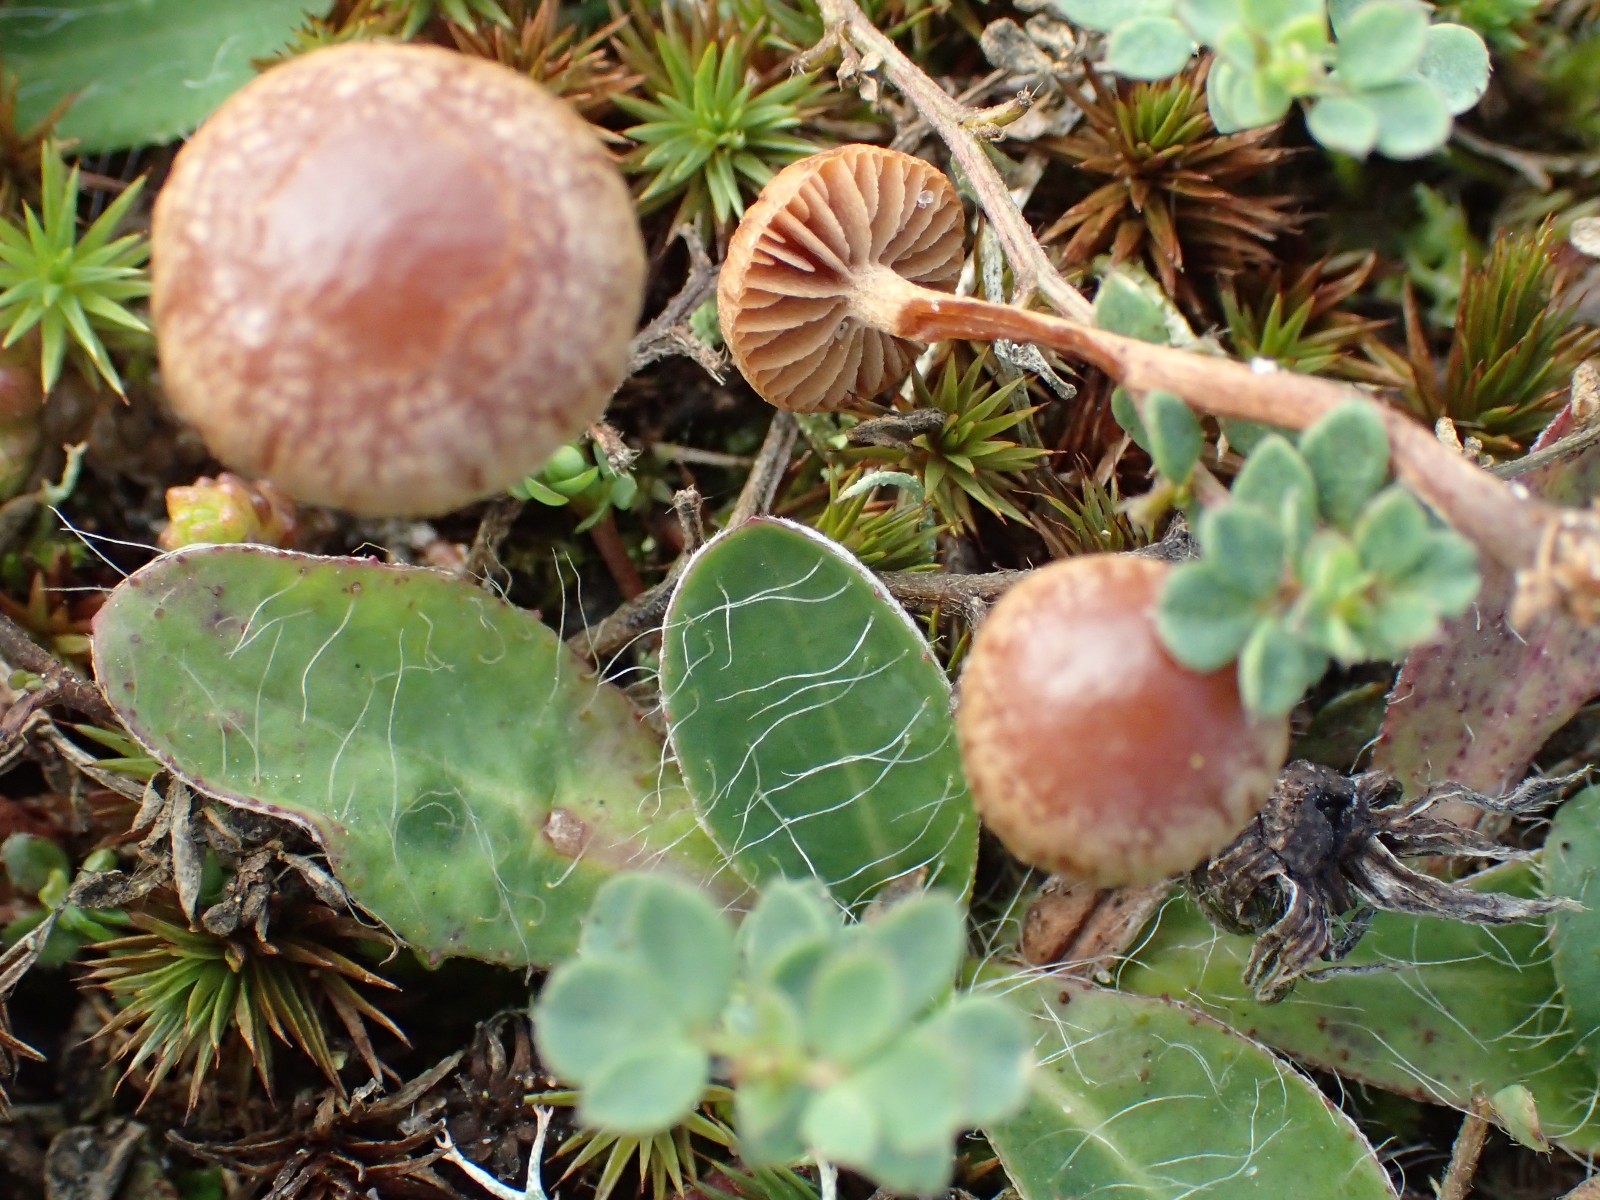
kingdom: Fungi
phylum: Basidiomycota
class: Agaricomycetes
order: Agaricales
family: Strophariaceae
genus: Deconica
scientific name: Deconica
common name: stråhat
